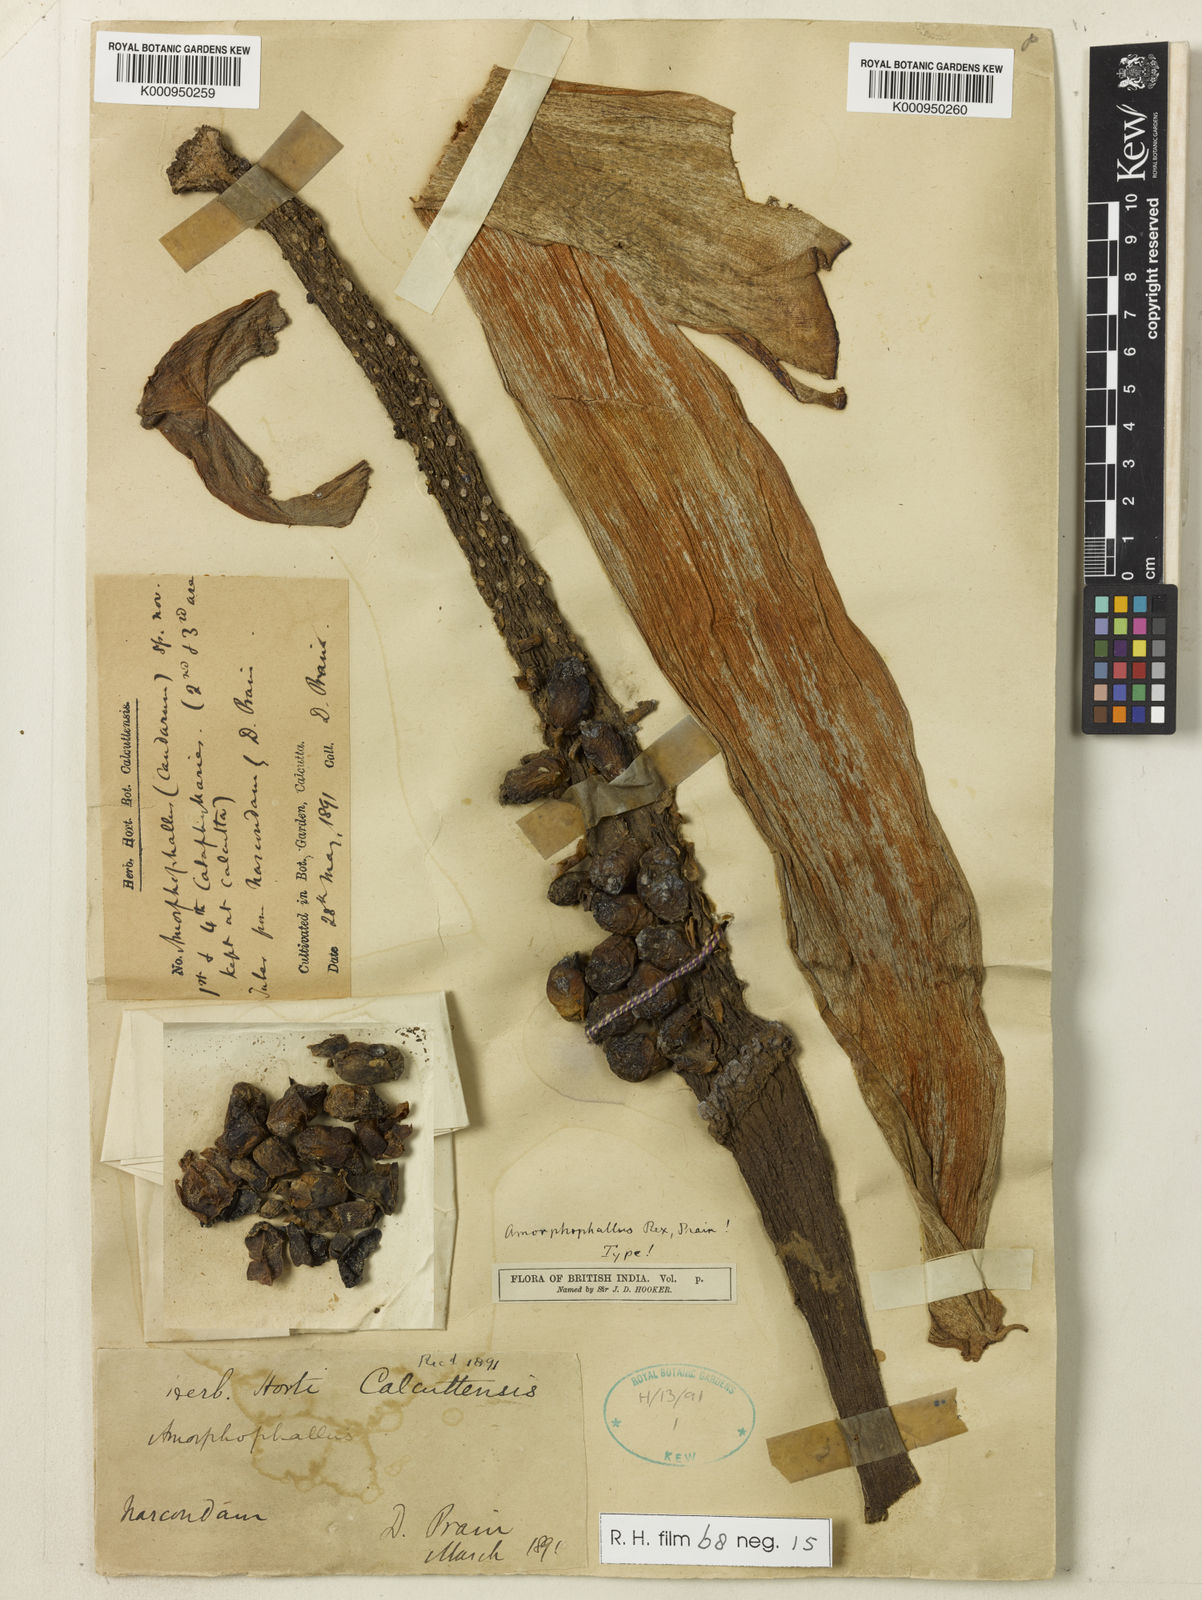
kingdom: Plantae
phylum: Tracheophyta
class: Liliopsida
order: Alismatales
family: Araceae
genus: Amorphophallus
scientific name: Amorphophallus paeoniifolius
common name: Telinga-potato
